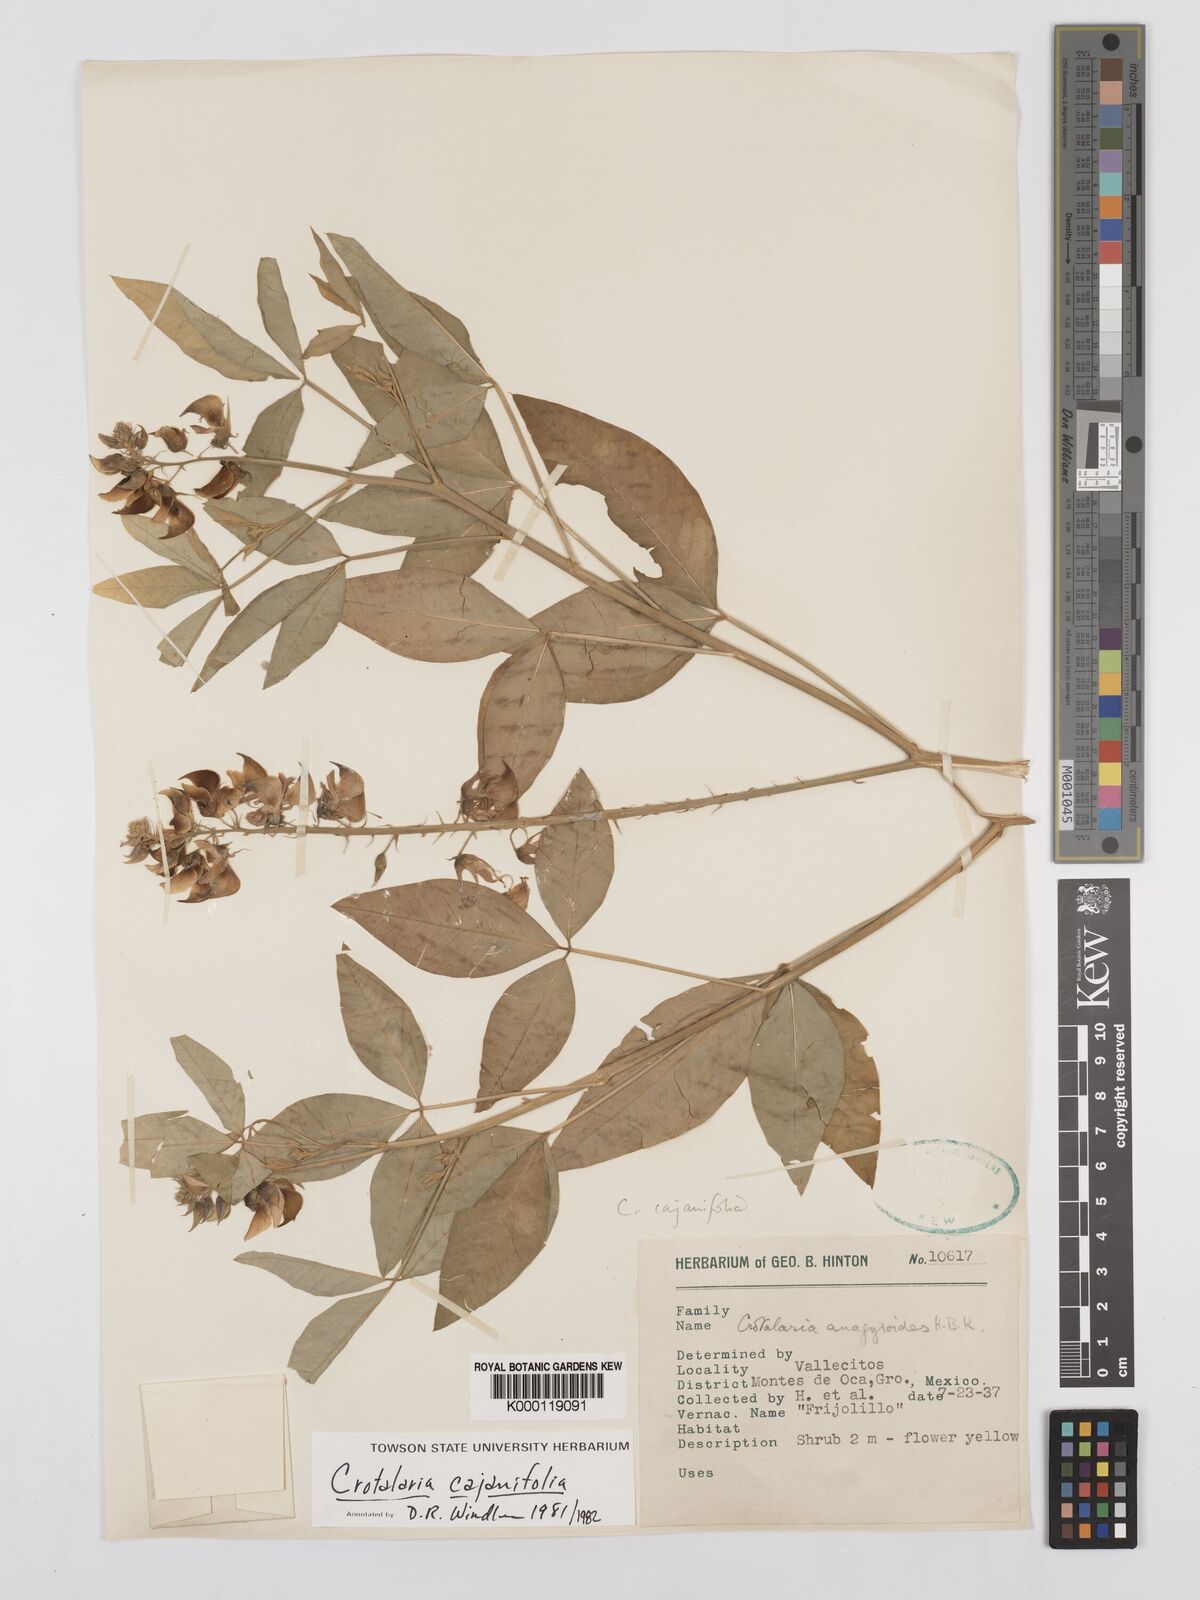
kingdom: Plantae
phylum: Tracheophyta
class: Magnoliopsida
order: Fabales
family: Fabaceae
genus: Crotalaria
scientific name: Crotalaria cajanifolia
